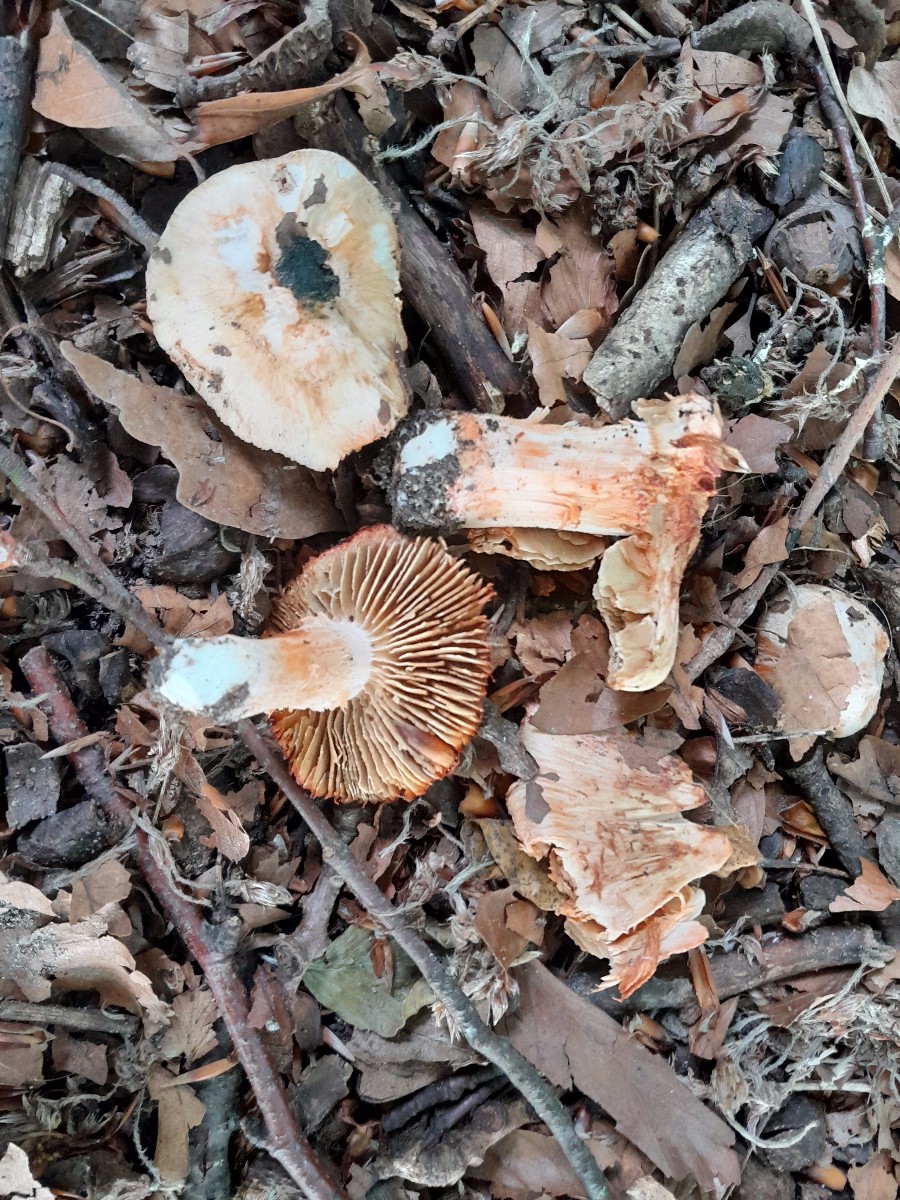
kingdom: Fungi
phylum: Basidiomycota
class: Agaricomycetes
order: Agaricales
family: Inocybaceae
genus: Inosperma
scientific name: Inosperma erubescens
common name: giftig trævlhat
